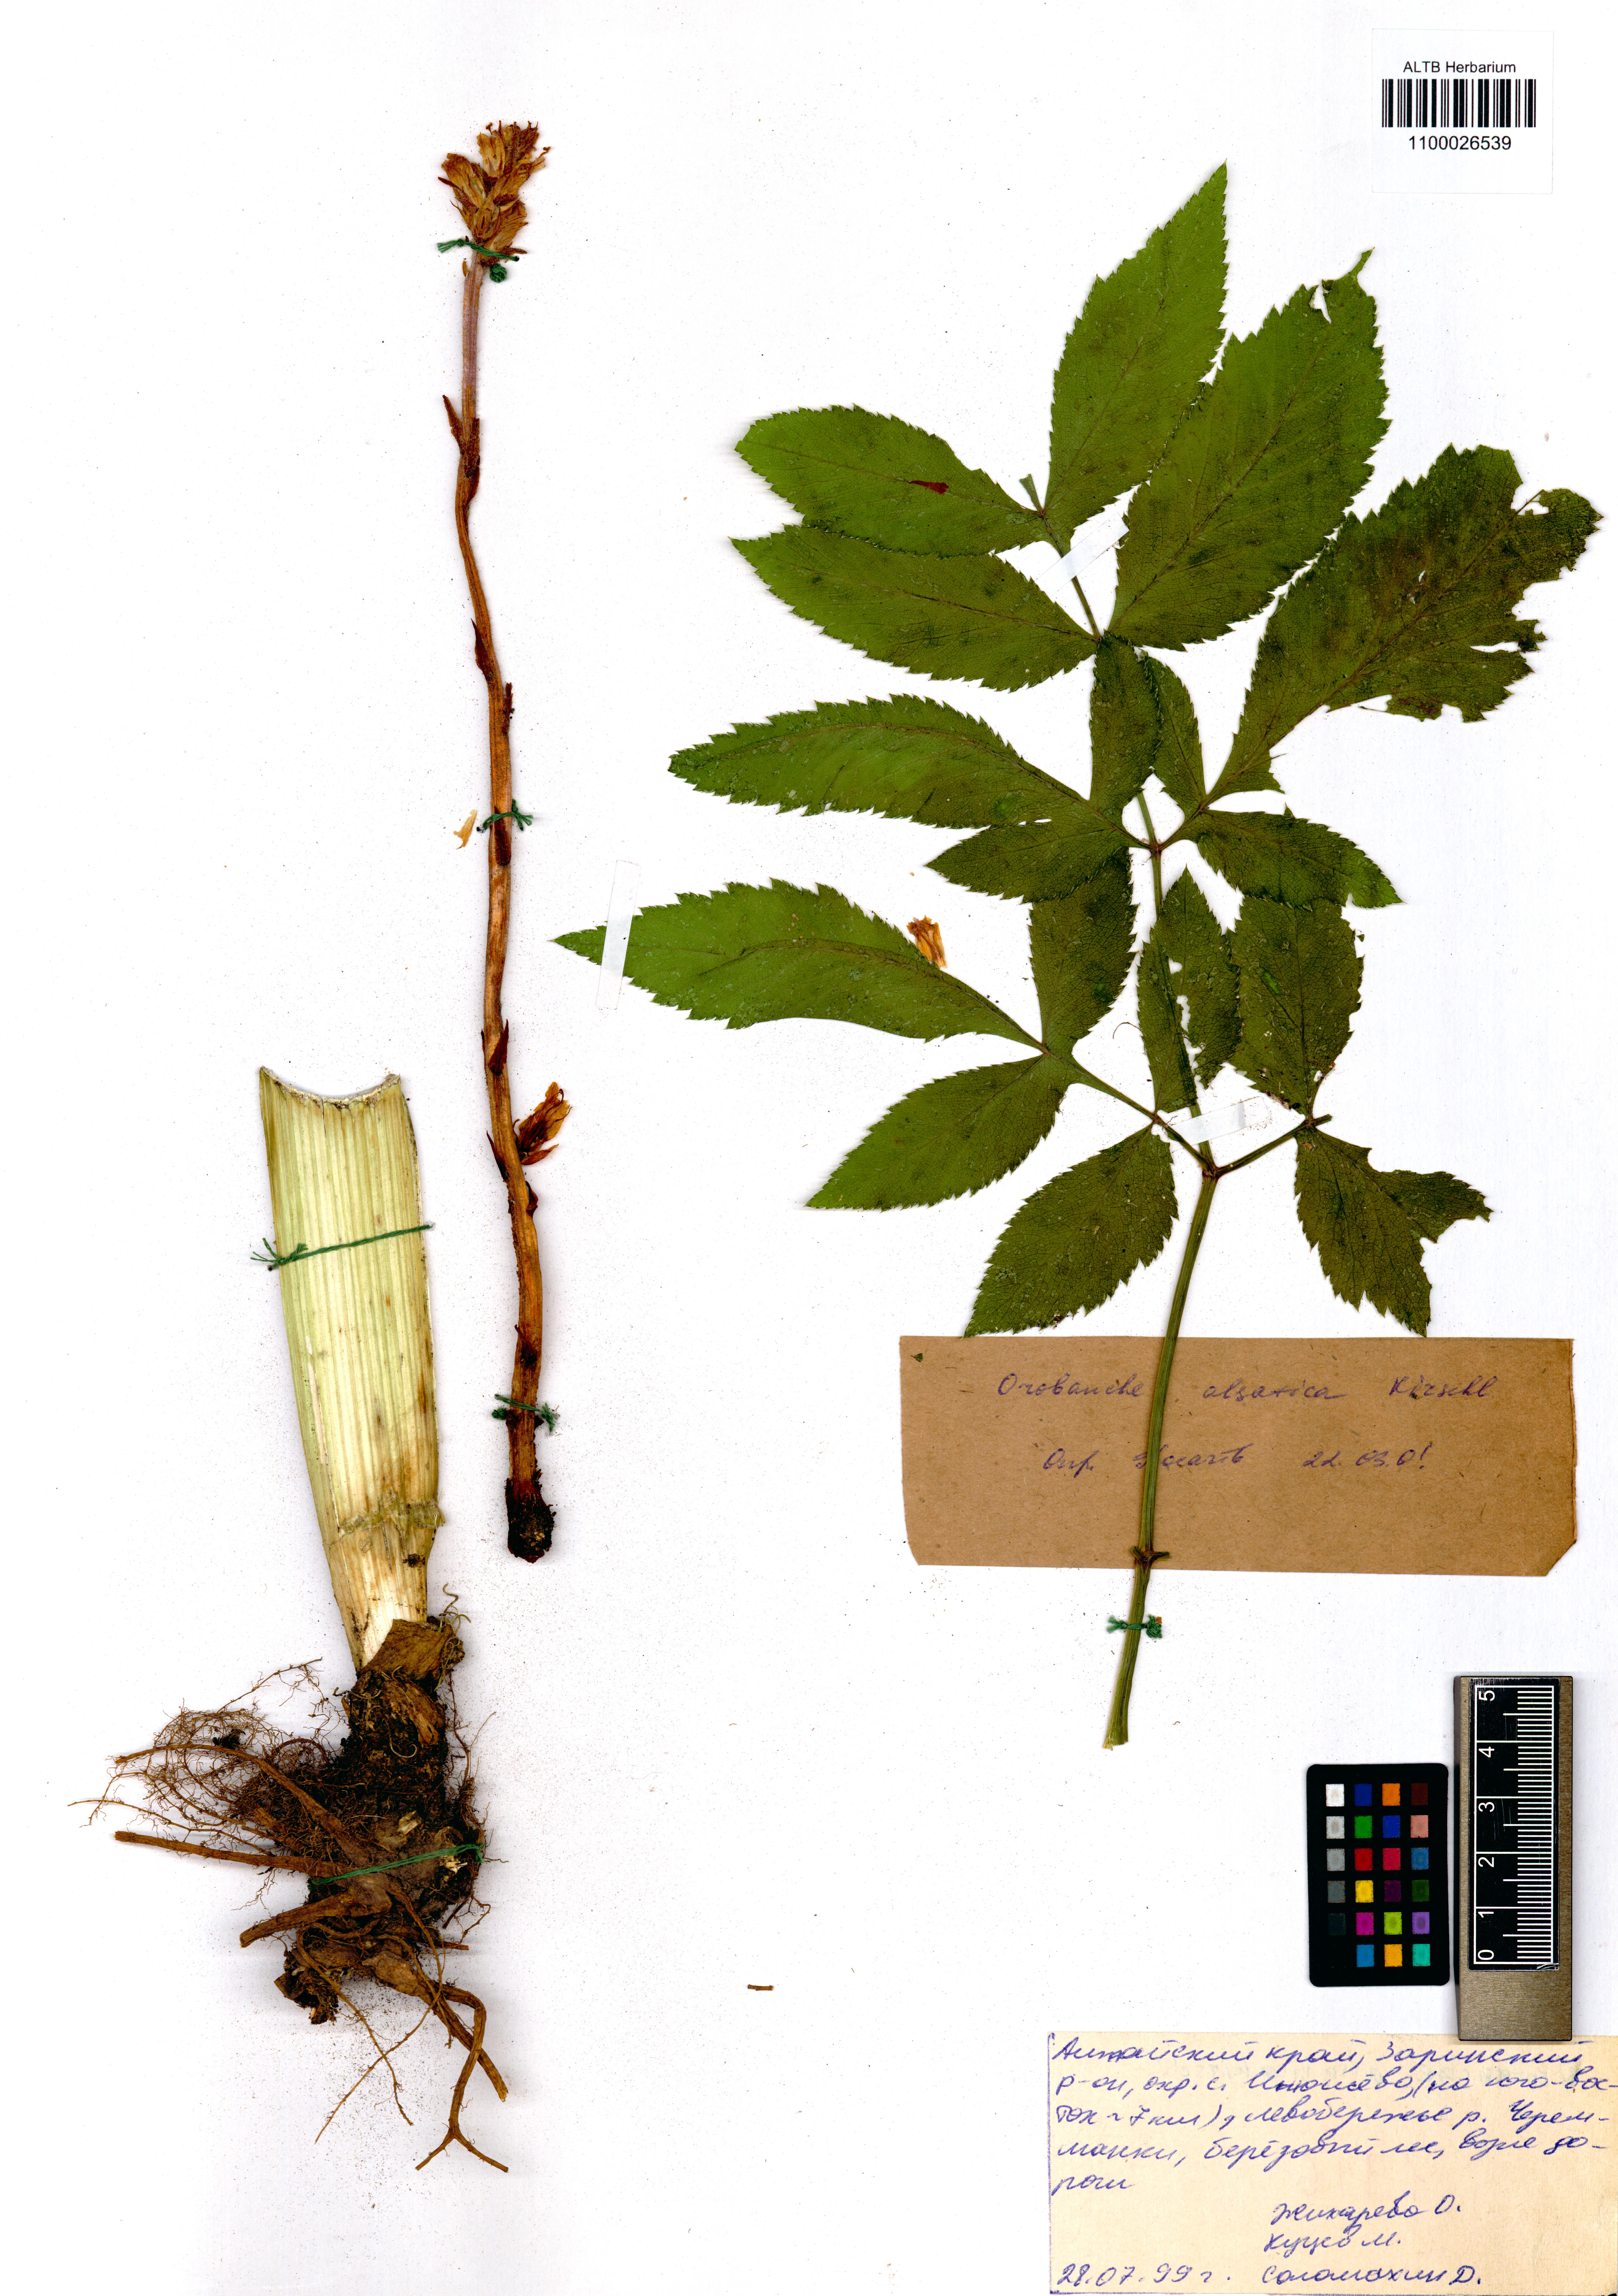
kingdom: Plantae
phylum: Tracheophyta
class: Magnoliopsida
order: Lamiales
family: Orobanchaceae
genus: Orobanche
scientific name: Orobanche alsatica
